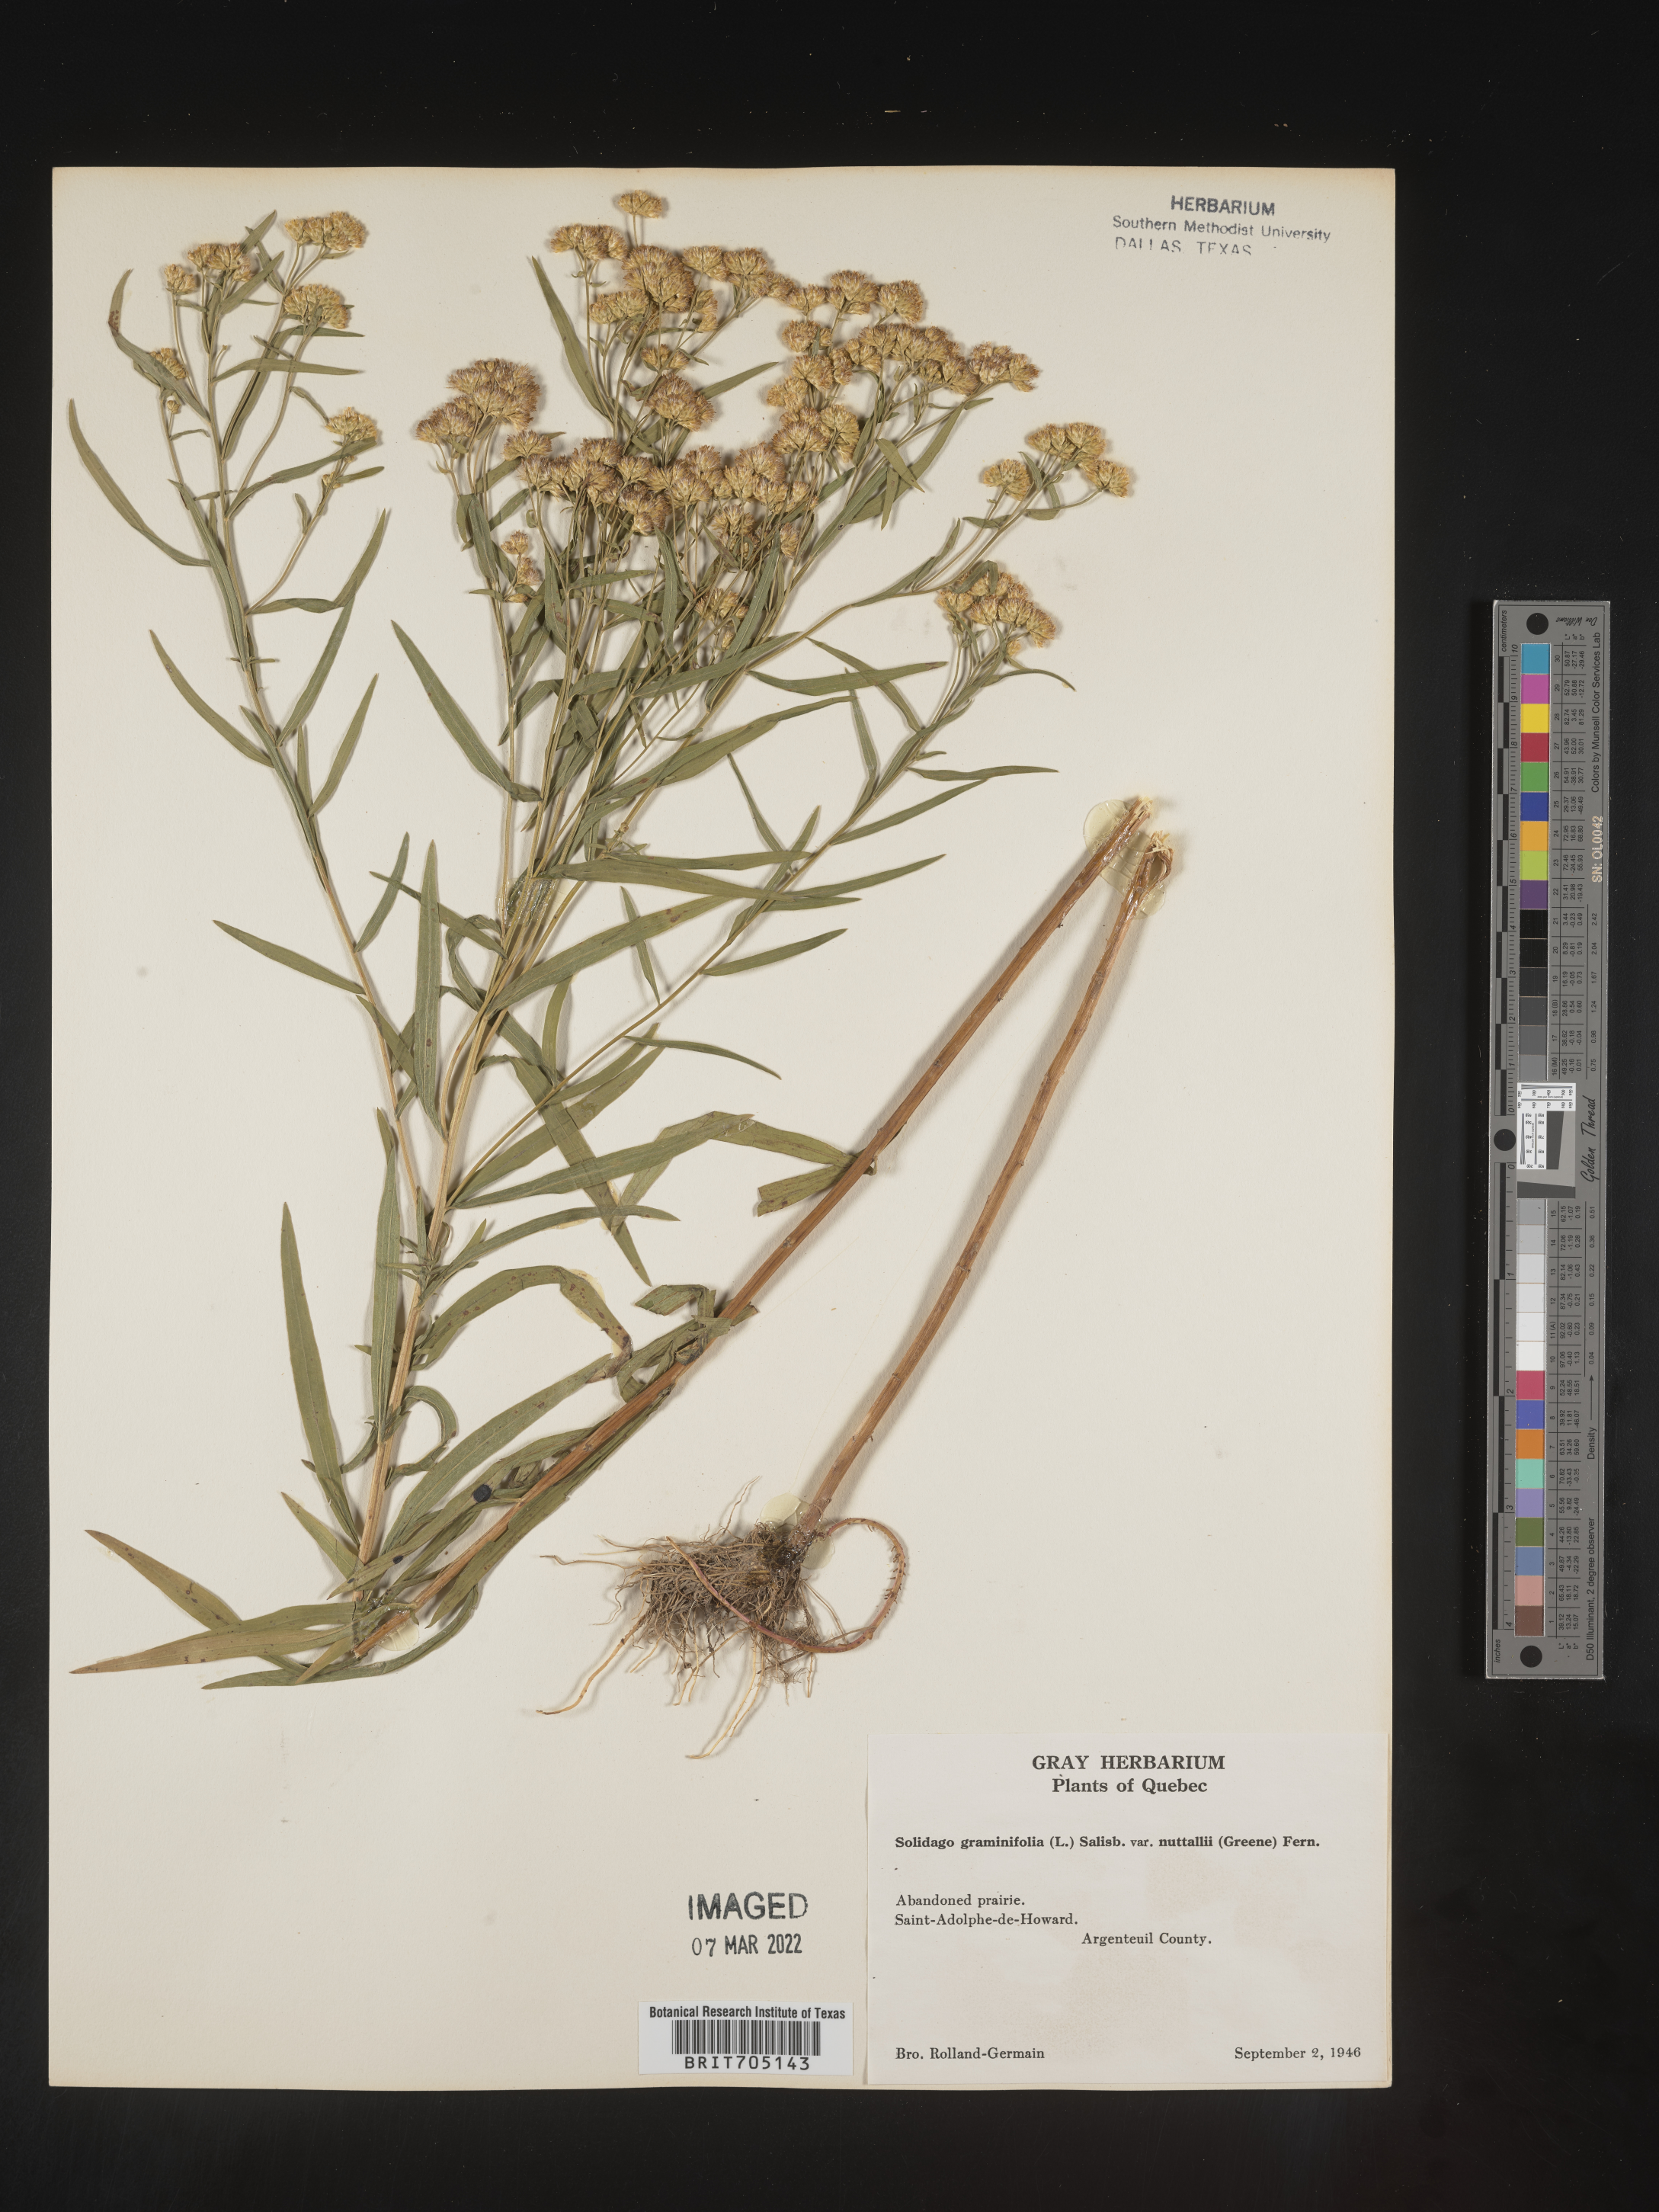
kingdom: Plantae
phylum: Tracheophyta
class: Magnoliopsida
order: Asterales
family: Asteraceae
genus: Euthamia
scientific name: Euthamia graminifolia
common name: Common goldentop
